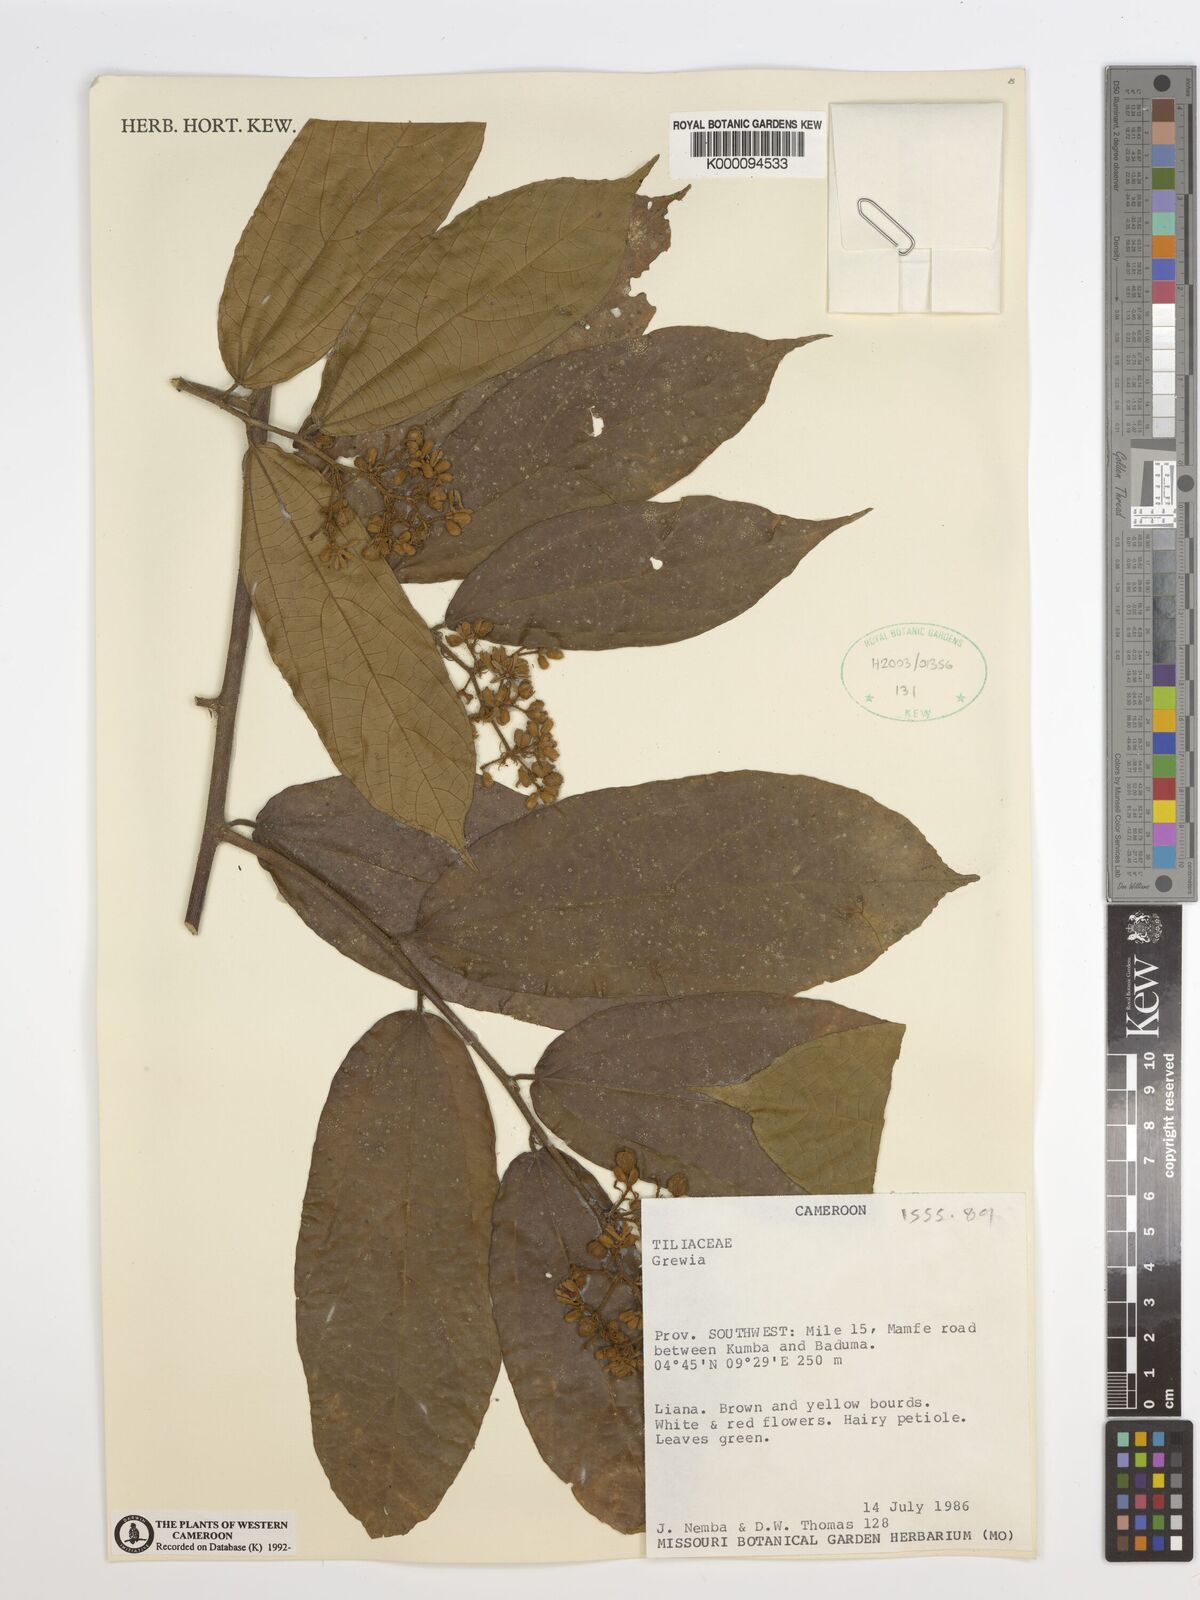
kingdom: Plantae
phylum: Tracheophyta
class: Magnoliopsida
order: Malvales
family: Malvaceae
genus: Grewia
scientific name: Grewia
